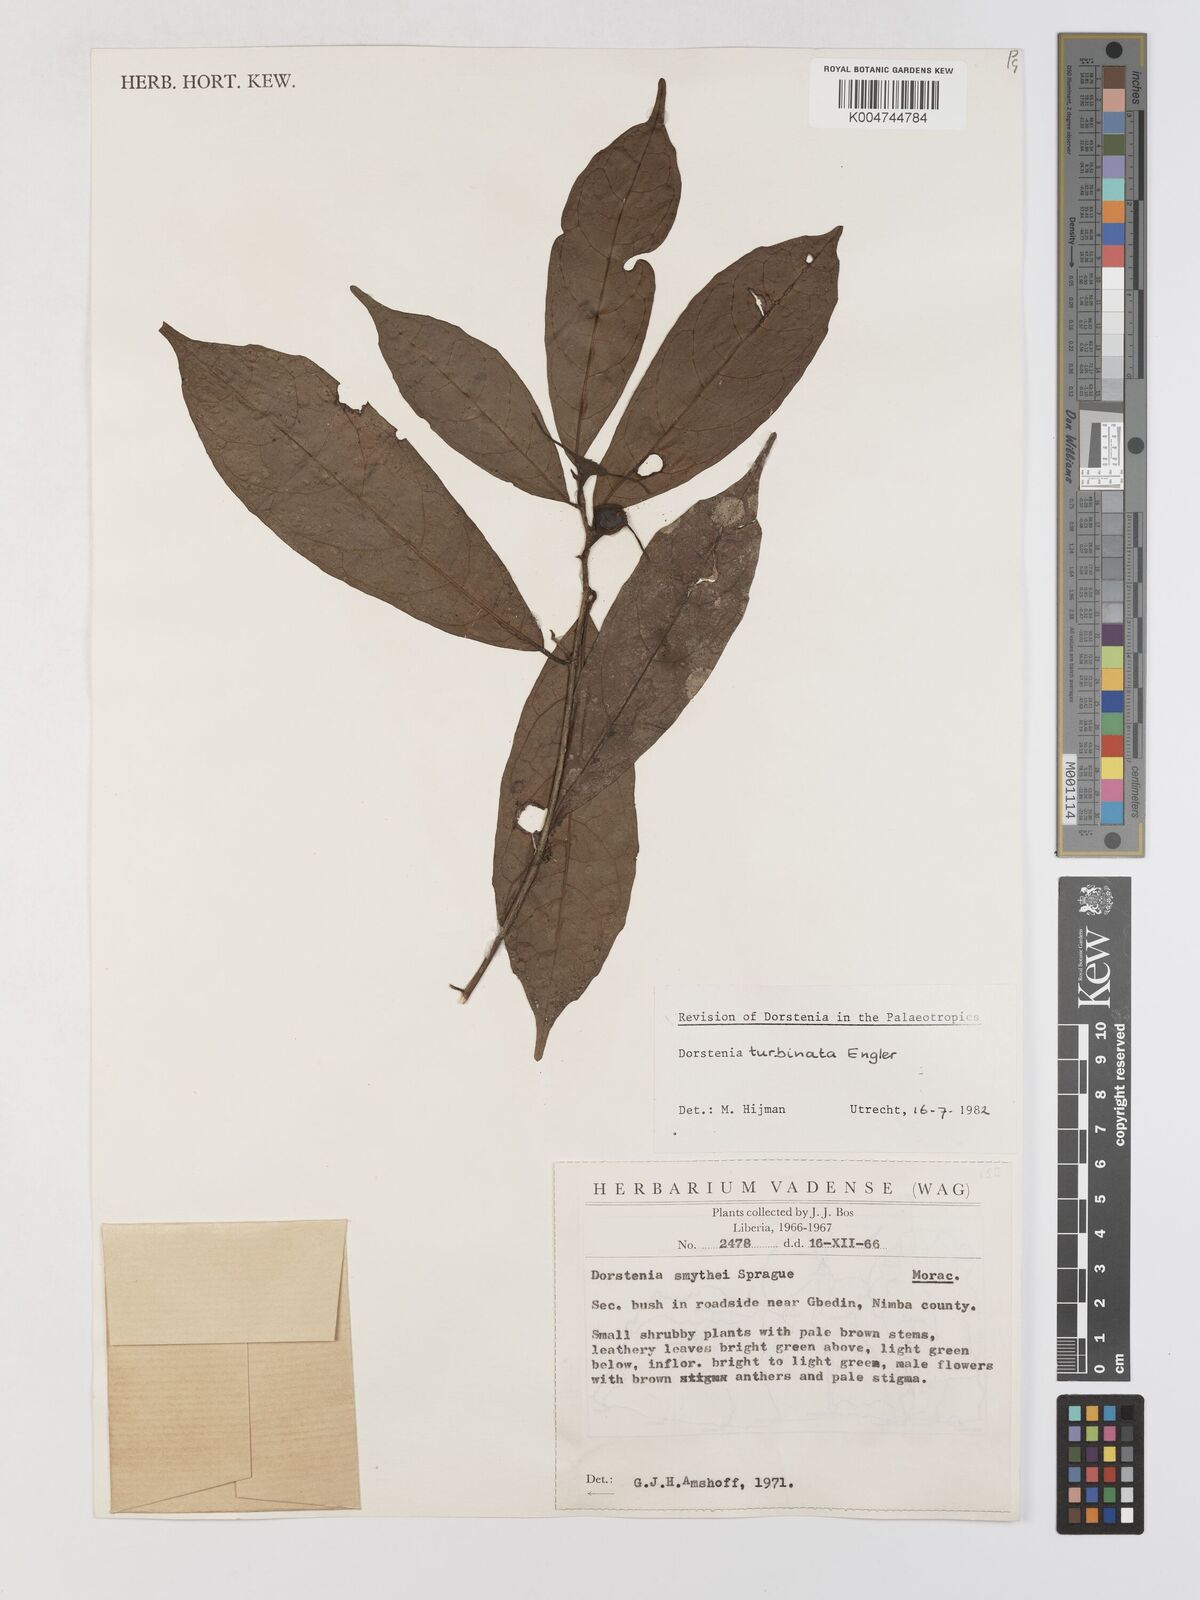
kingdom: Plantae
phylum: Tracheophyta
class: Magnoliopsida
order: Rosales
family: Moraceae
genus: Hijmania
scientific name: Hijmania turbinata
